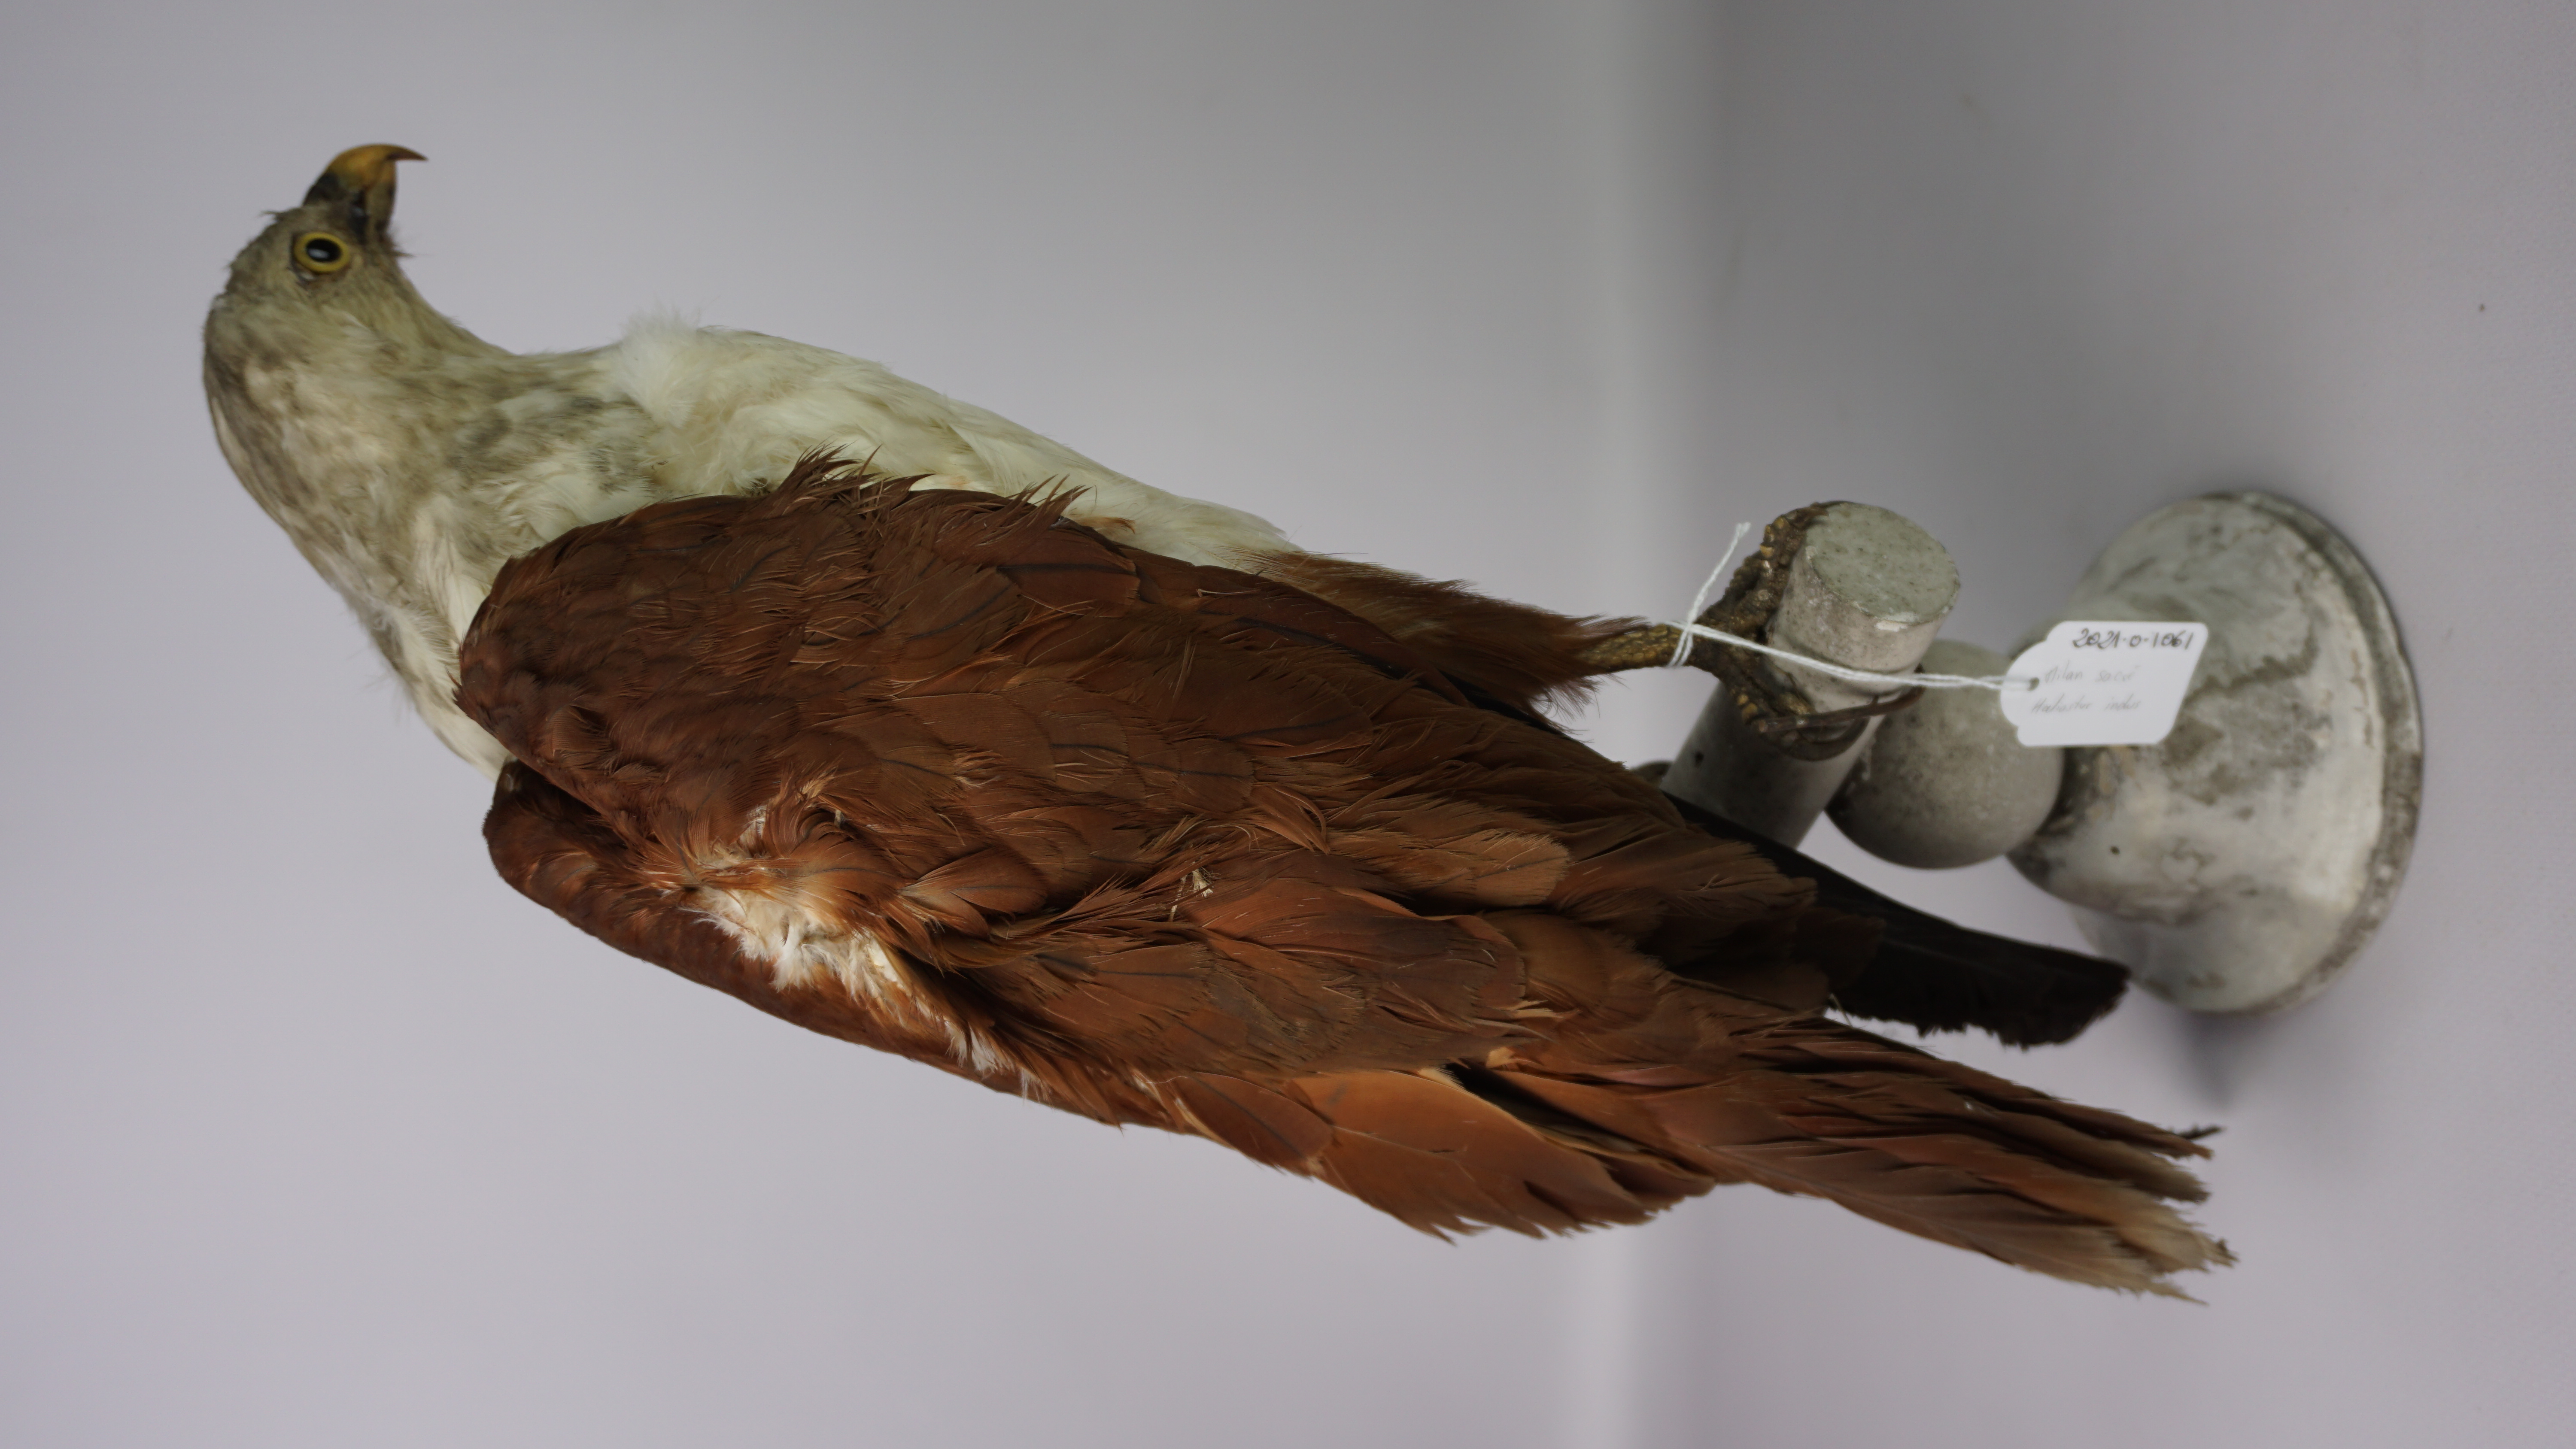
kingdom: Animalia
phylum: Chordata
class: Aves
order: Accipitriformes
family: Accipitridae
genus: Haliastur
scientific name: Haliastur indus
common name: Brahminy kite
